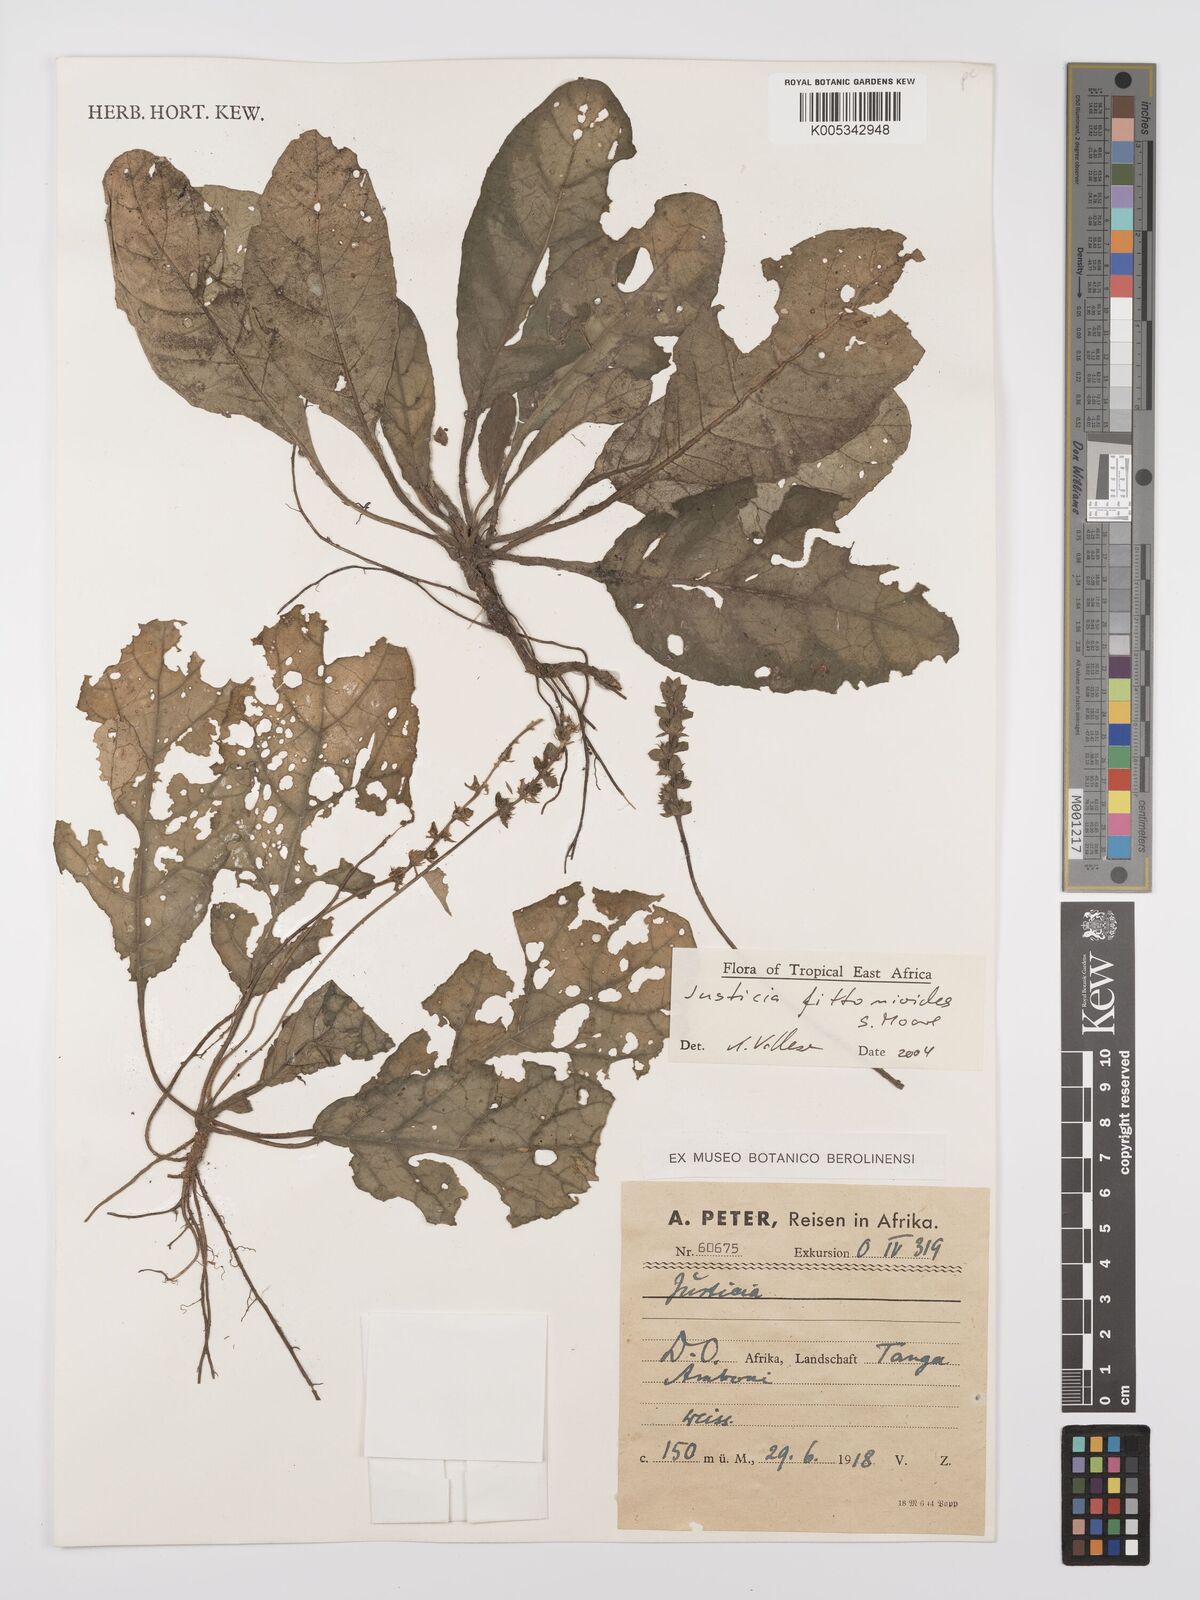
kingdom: Plantae
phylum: Tracheophyta
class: Magnoliopsida
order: Lamiales
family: Acanthaceae
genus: Justicia
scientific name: Justicia
